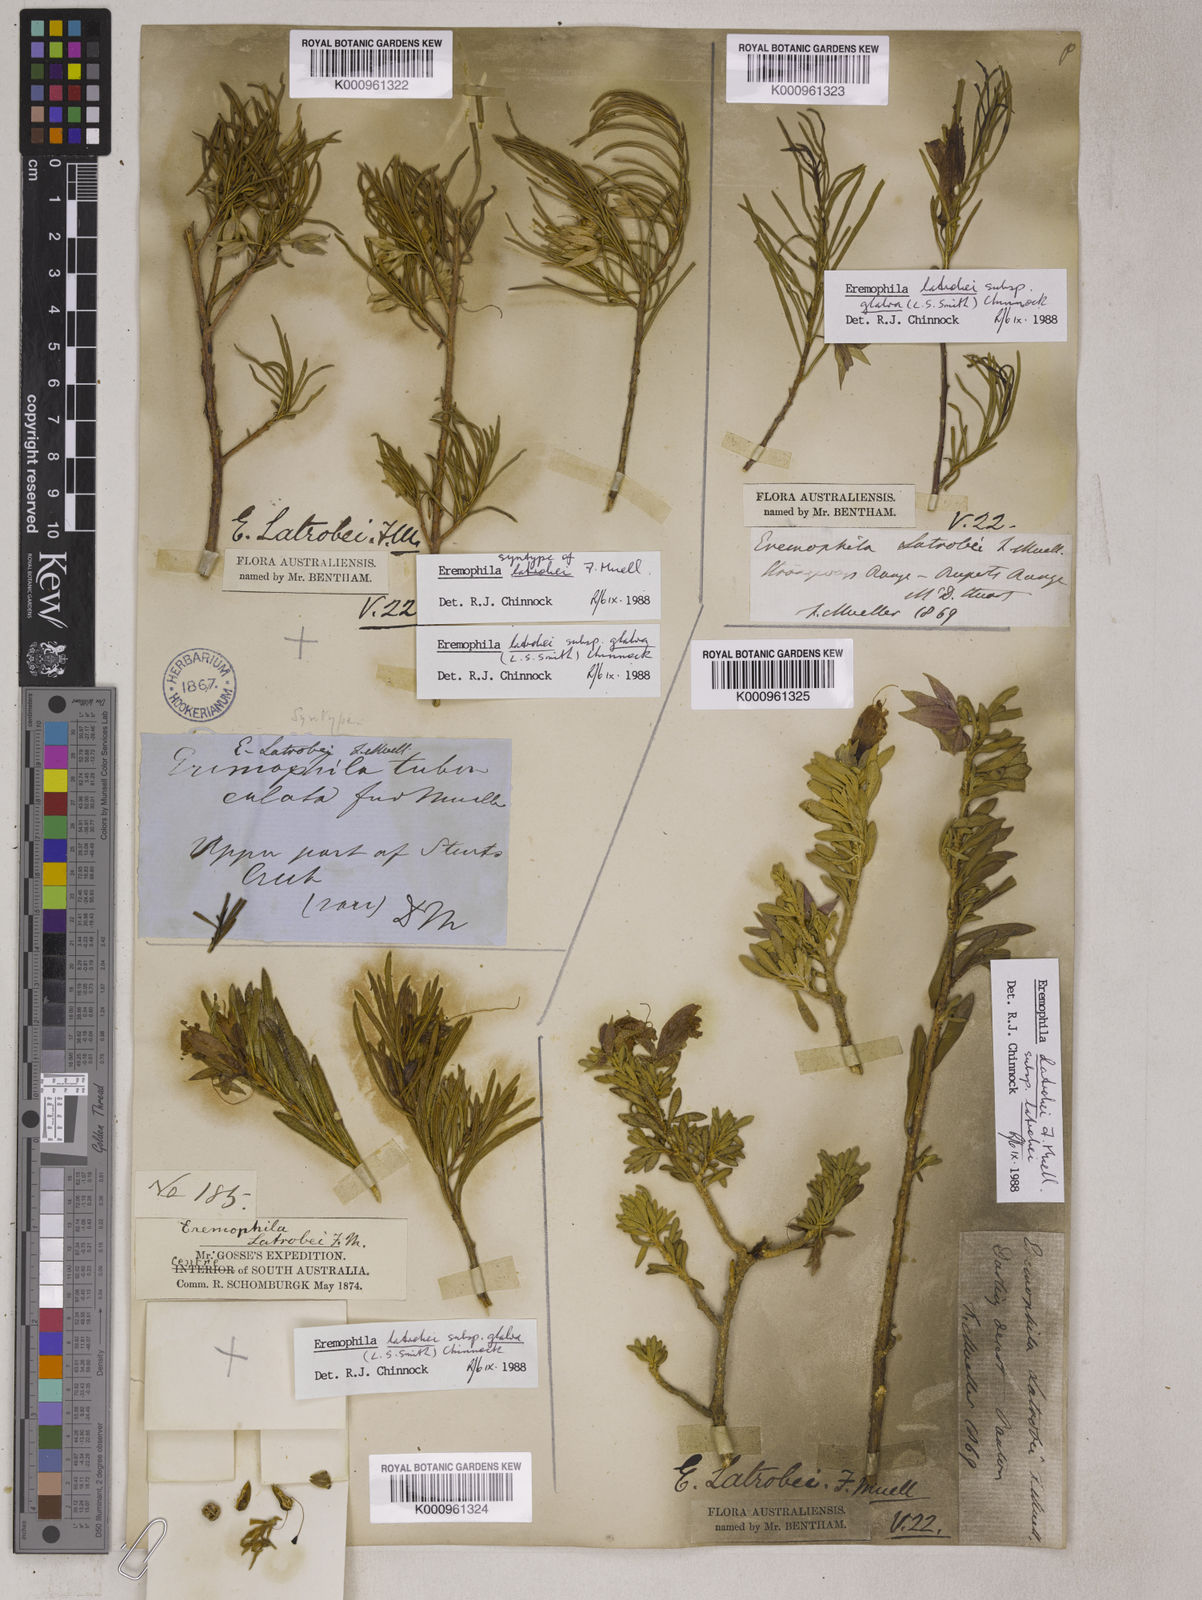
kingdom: Plantae
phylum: Tracheophyta
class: Magnoliopsida
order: Lamiales
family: Scrophulariaceae
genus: Eremophila
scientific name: Eremophila latrobei
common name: Crimson turkeybush
